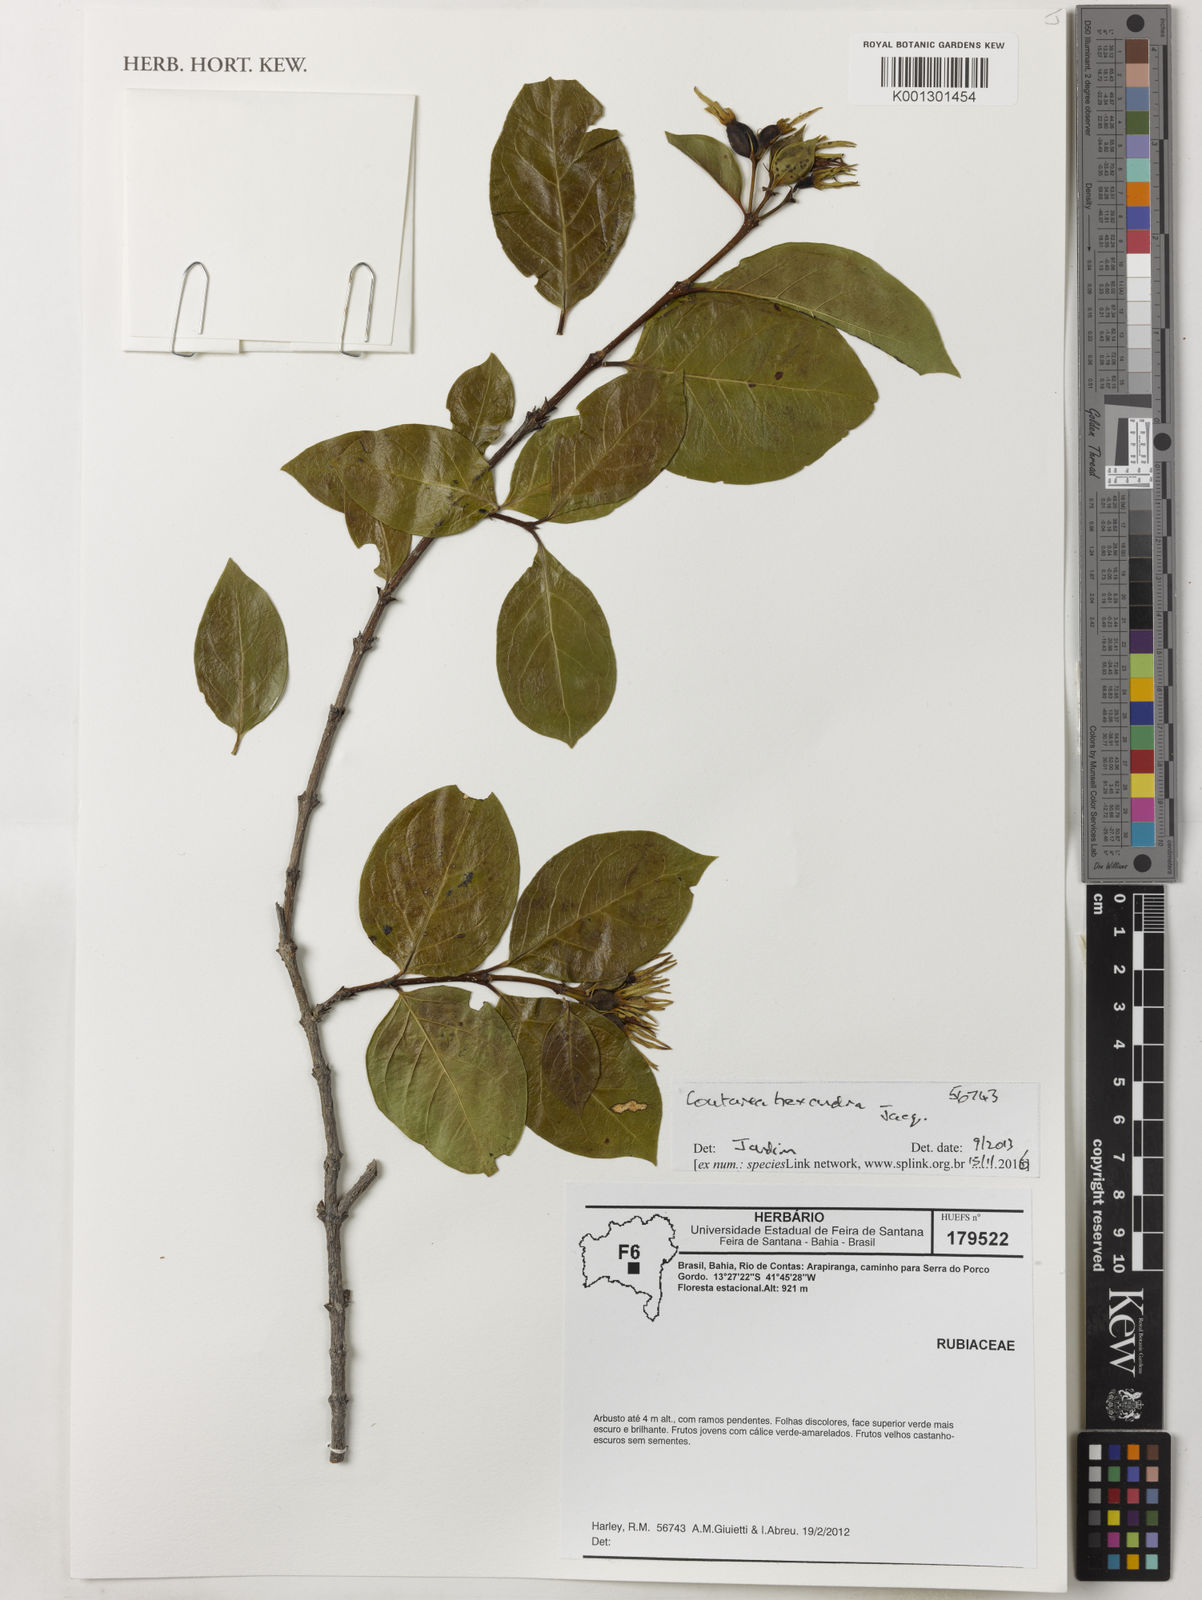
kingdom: Plantae
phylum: Tracheophyta
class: Magnoliopsida
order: Gentianales
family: Rubiaceae
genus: Coutarea
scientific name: Coutarea hexandra
